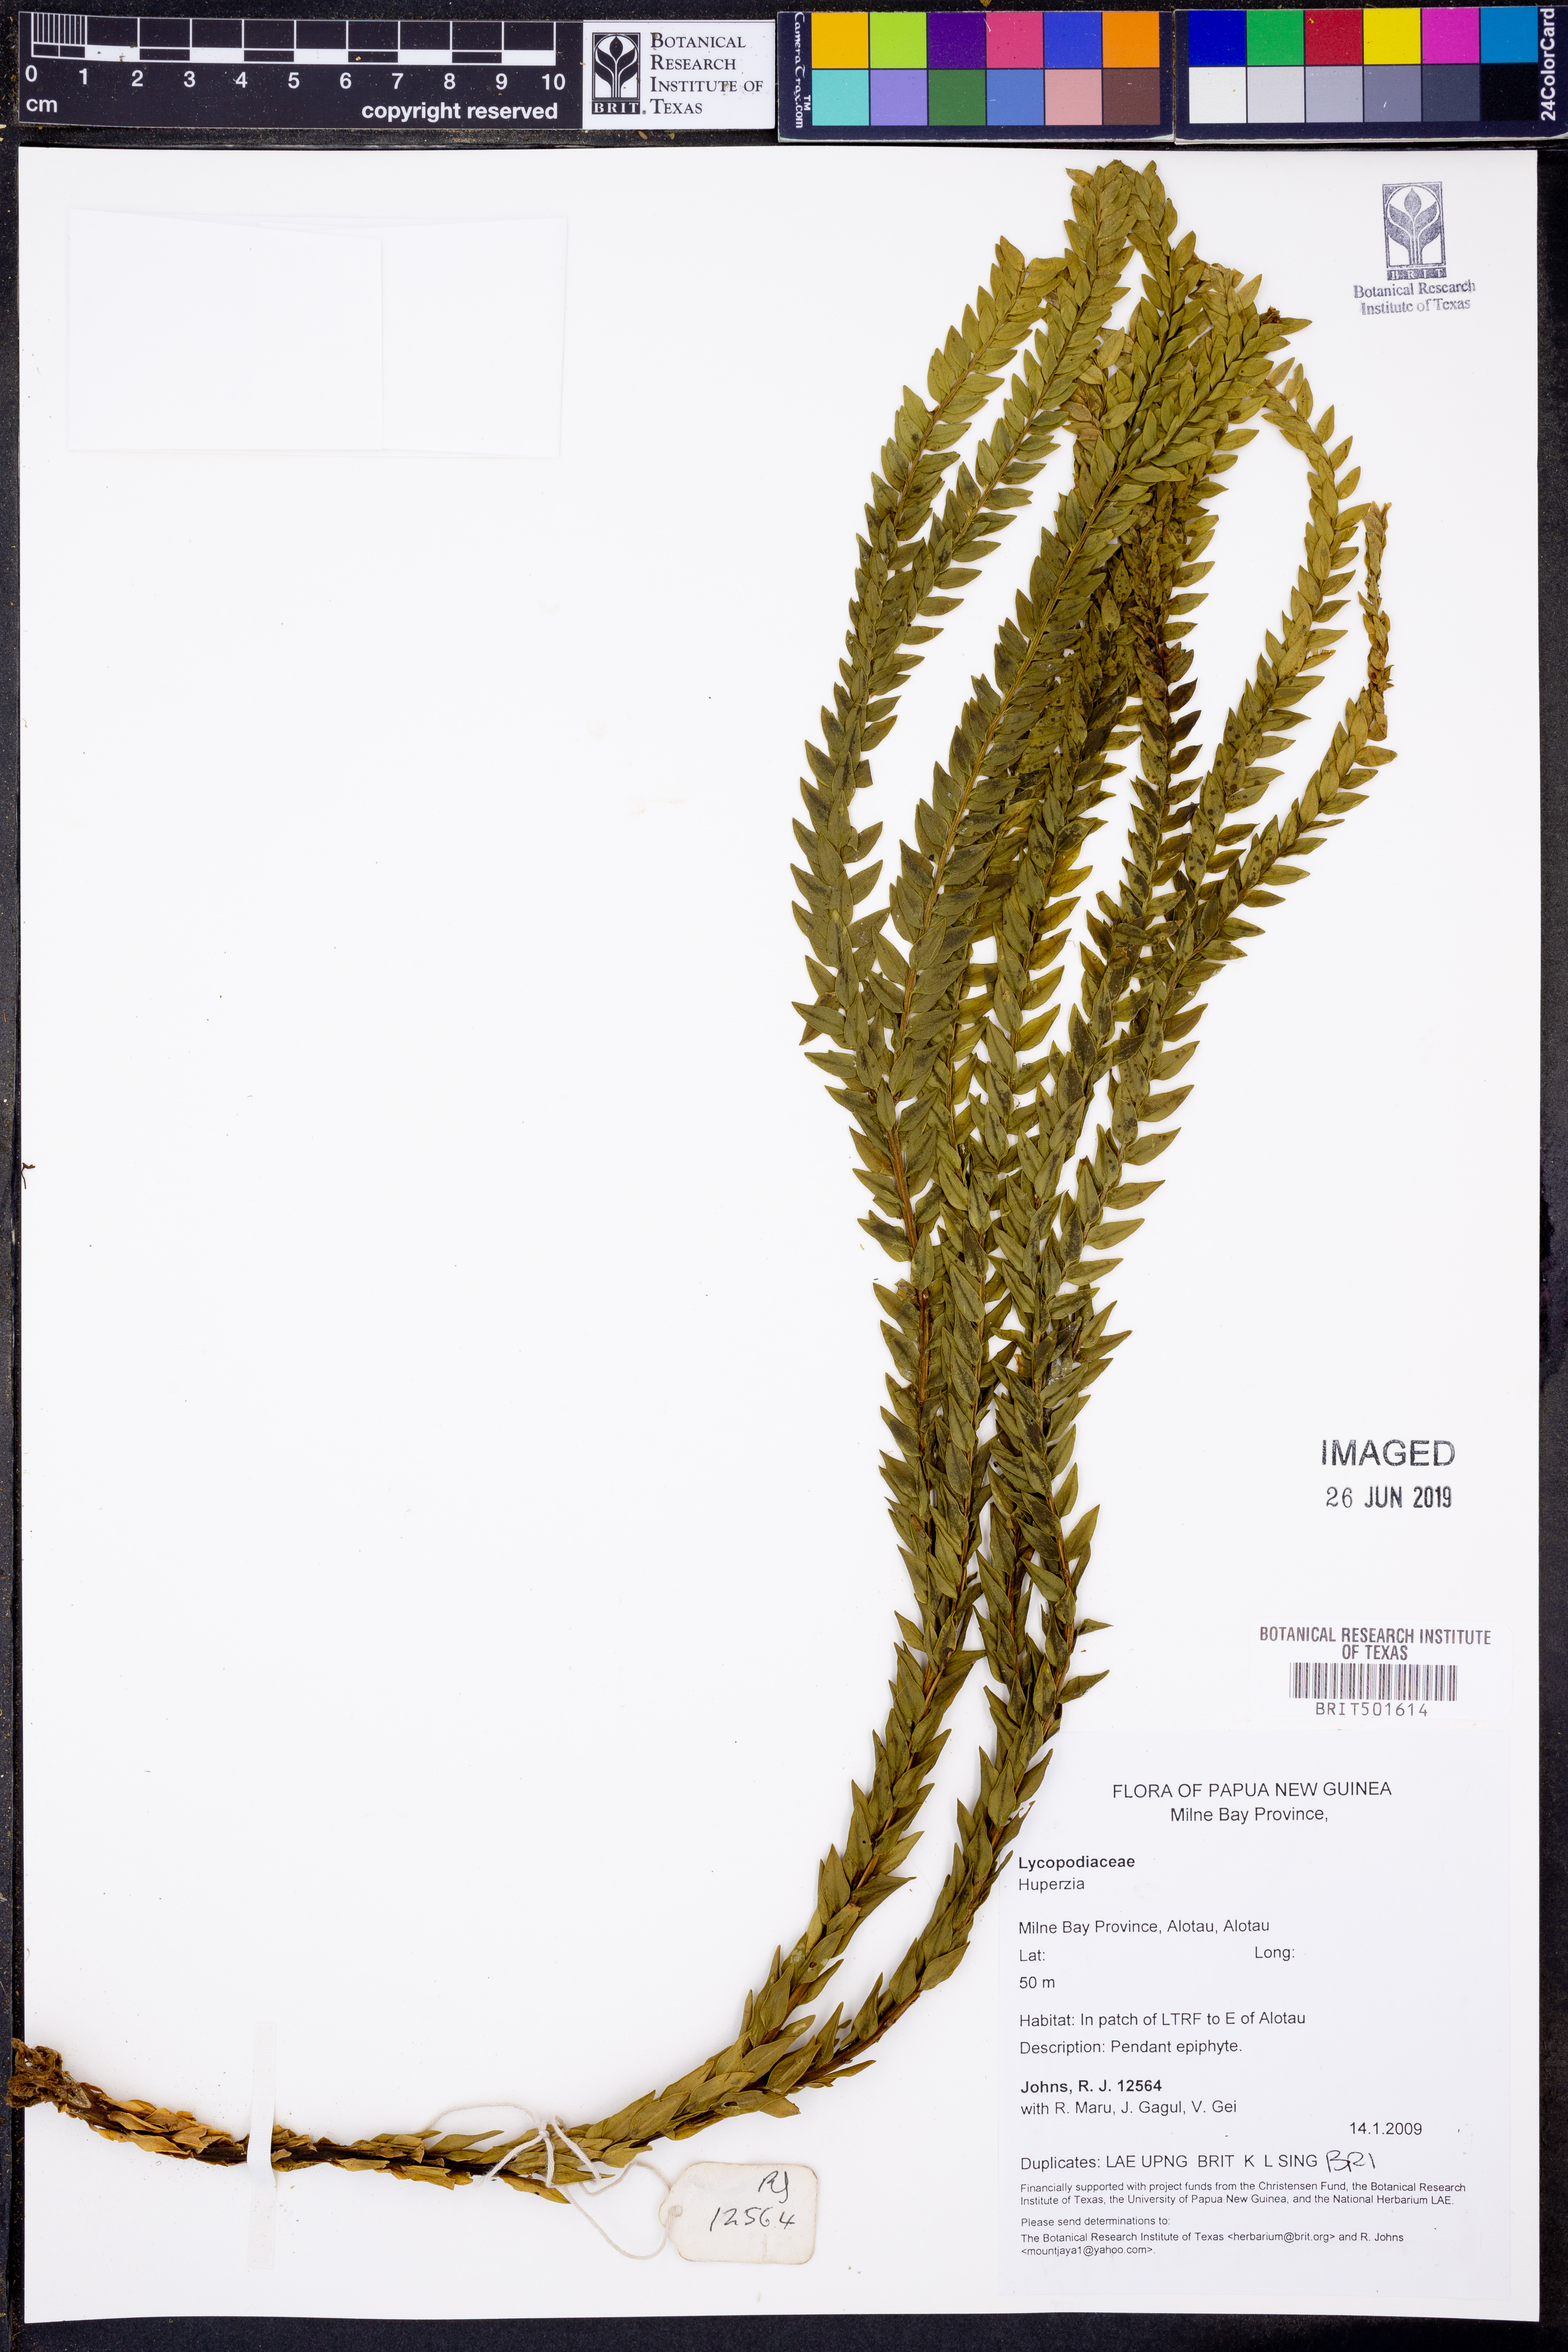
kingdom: Plantae
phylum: Tracheophyta
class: Lycopodiopsida
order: Lycopodiales
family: Lycopodiaceae
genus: Huperzia
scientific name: Huperzia
